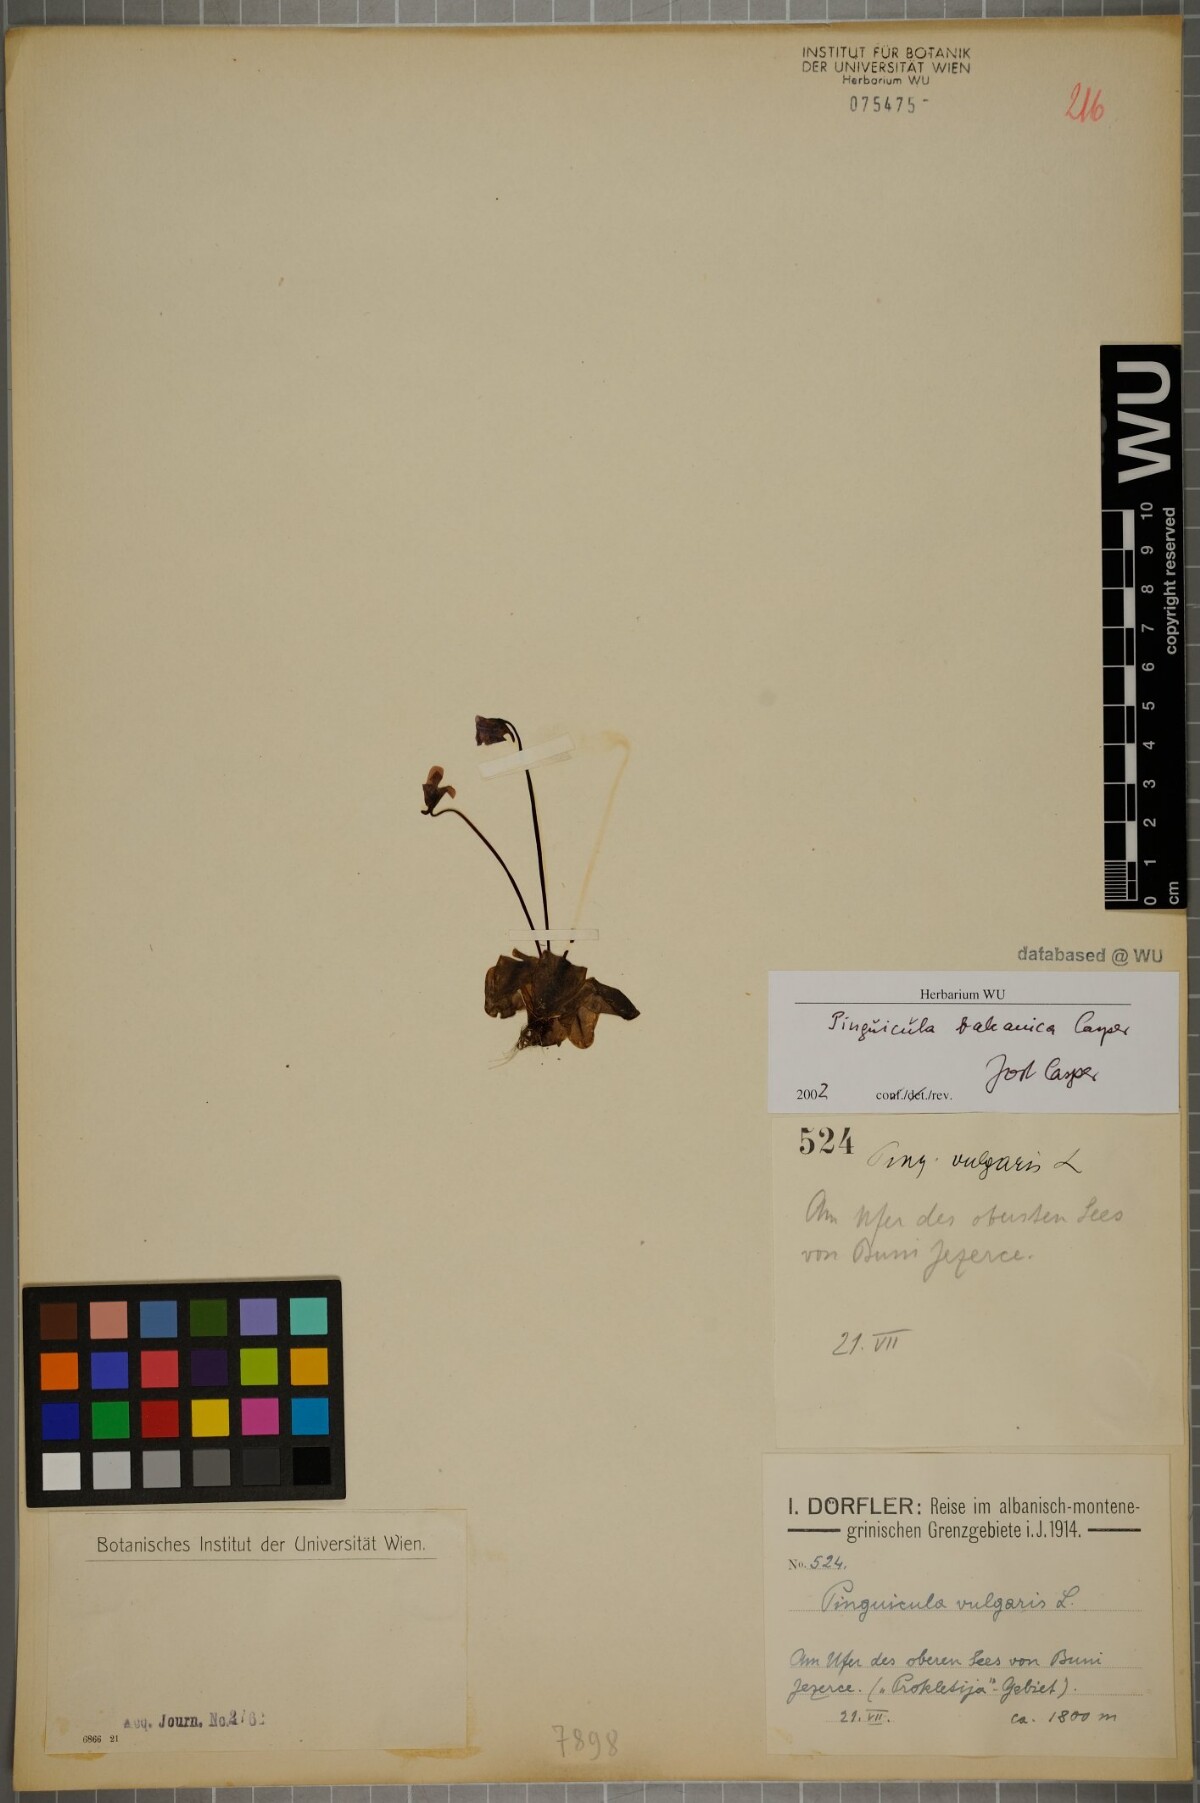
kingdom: Plantae
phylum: Tracheophyta
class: Magnoliopsida
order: Lamiales
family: Lentibulariaceae
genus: Pinguicula
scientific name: Pinguicula balcanica
